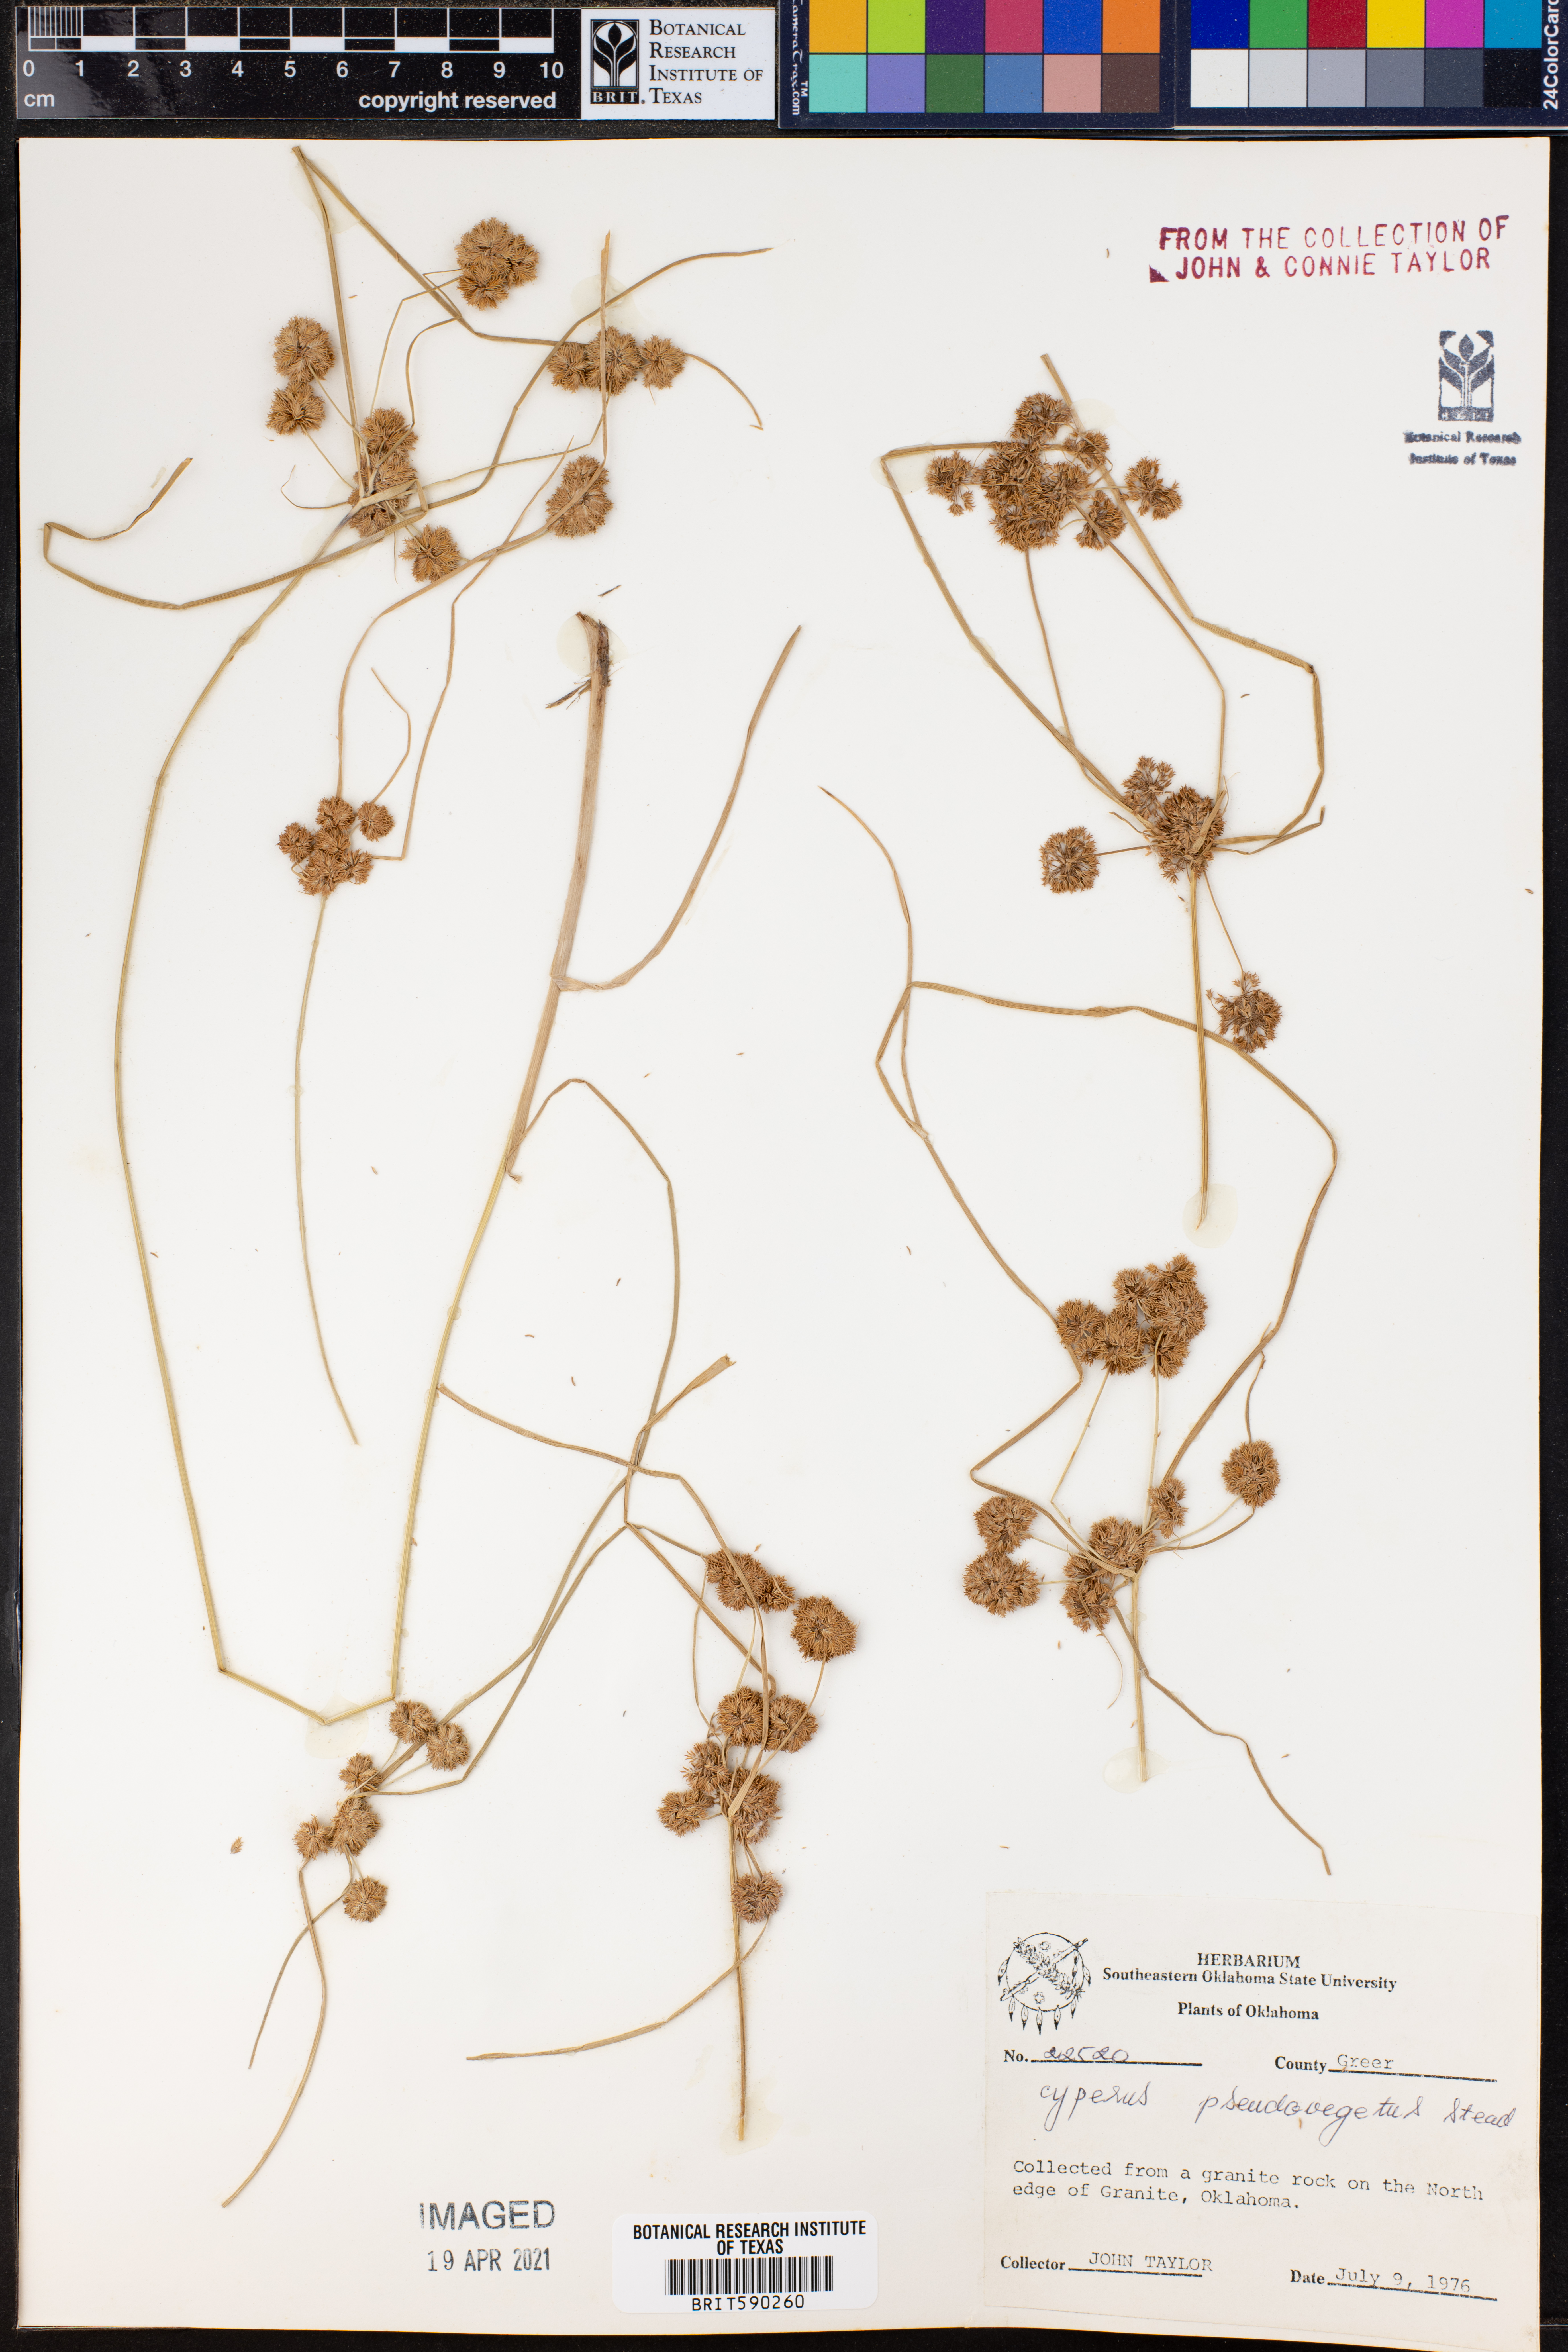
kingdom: Plantae
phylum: Tracheophyta
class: Liliopsida
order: Poales
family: Cyperaceae
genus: Cyperus
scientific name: Cyperus pseudovegetus
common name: Marsh flat sedge
